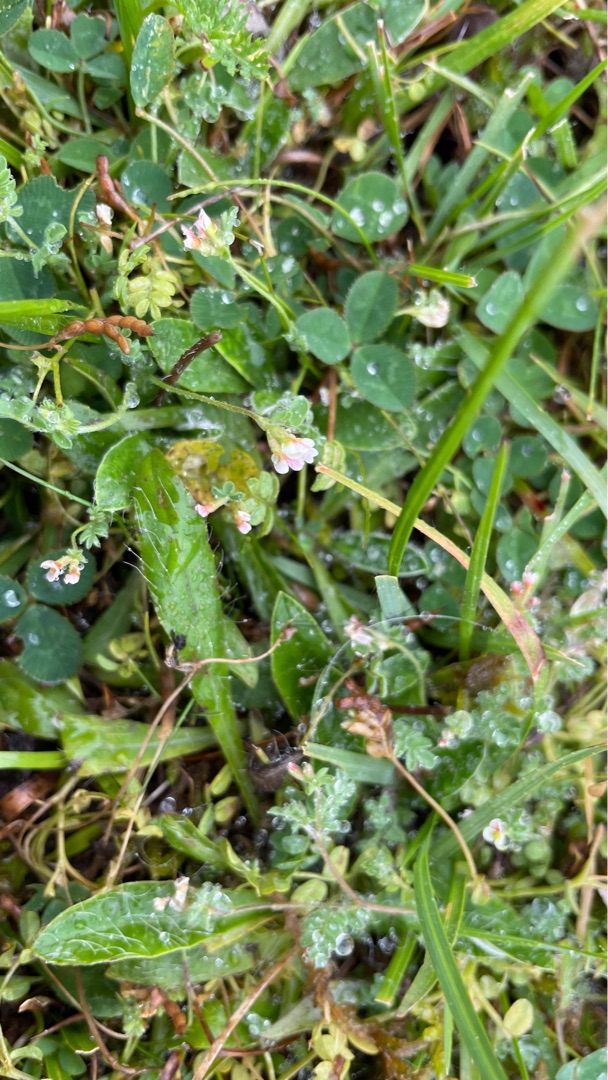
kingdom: Plantae
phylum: Tracheophyta
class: Magnoliopsida
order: Fabales
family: Fabaceae
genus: Ornithopus
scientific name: Ornithopus perpusillus
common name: Liden fugleklo
